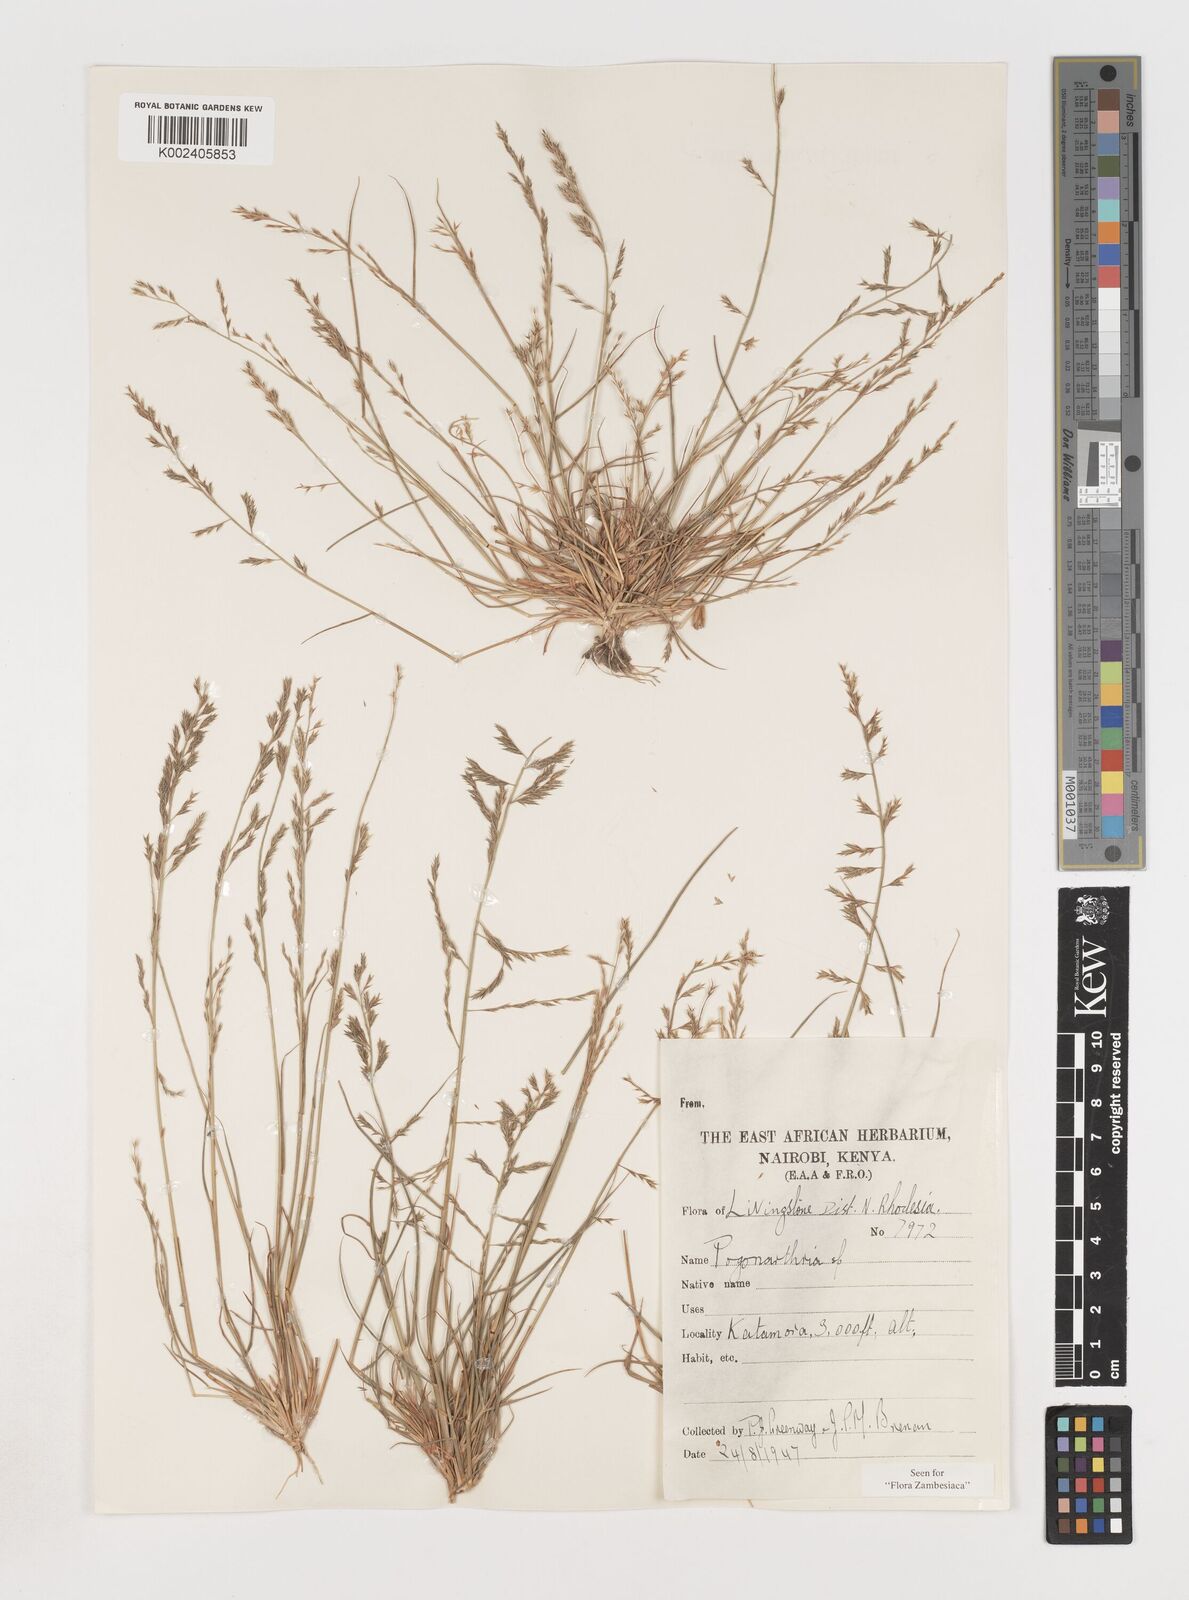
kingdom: Plantae
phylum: Tracheophyta
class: Liliopsida
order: Poales
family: Poaceae
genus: Pogonarthria
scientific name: Pogonarthria fleckii
